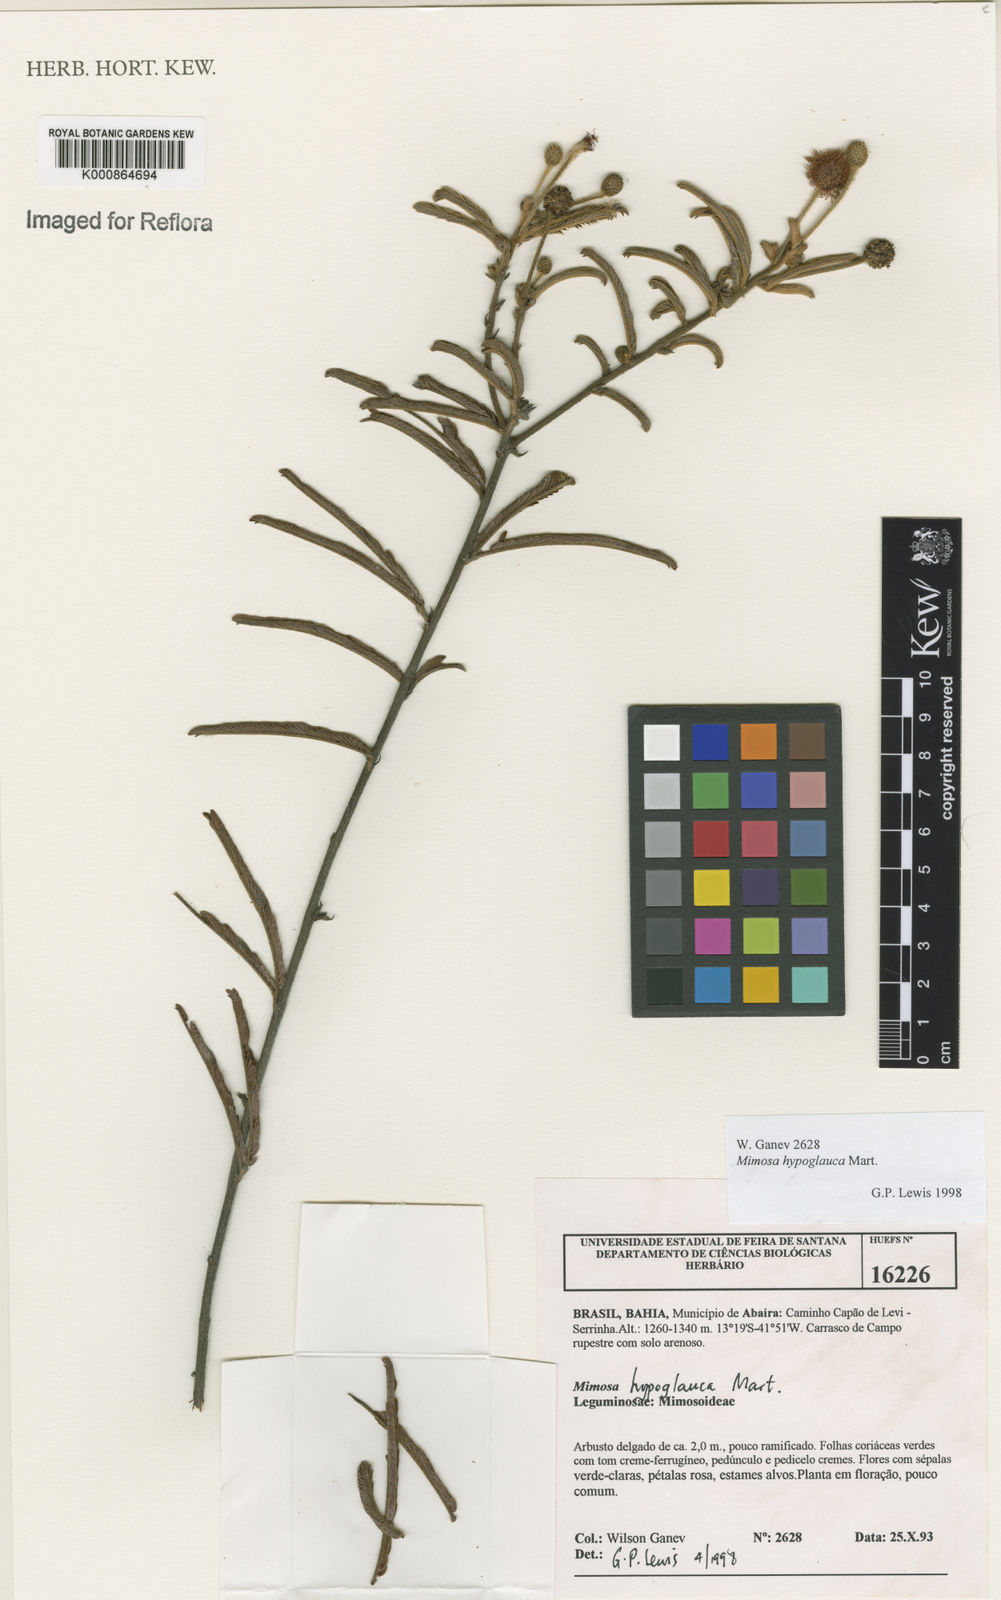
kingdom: Plantae
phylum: Tracheophyta
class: Magnoliopsida
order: Fabales
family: Fabaceae
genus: Mimosa
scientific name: Mimosa hypoglauca
